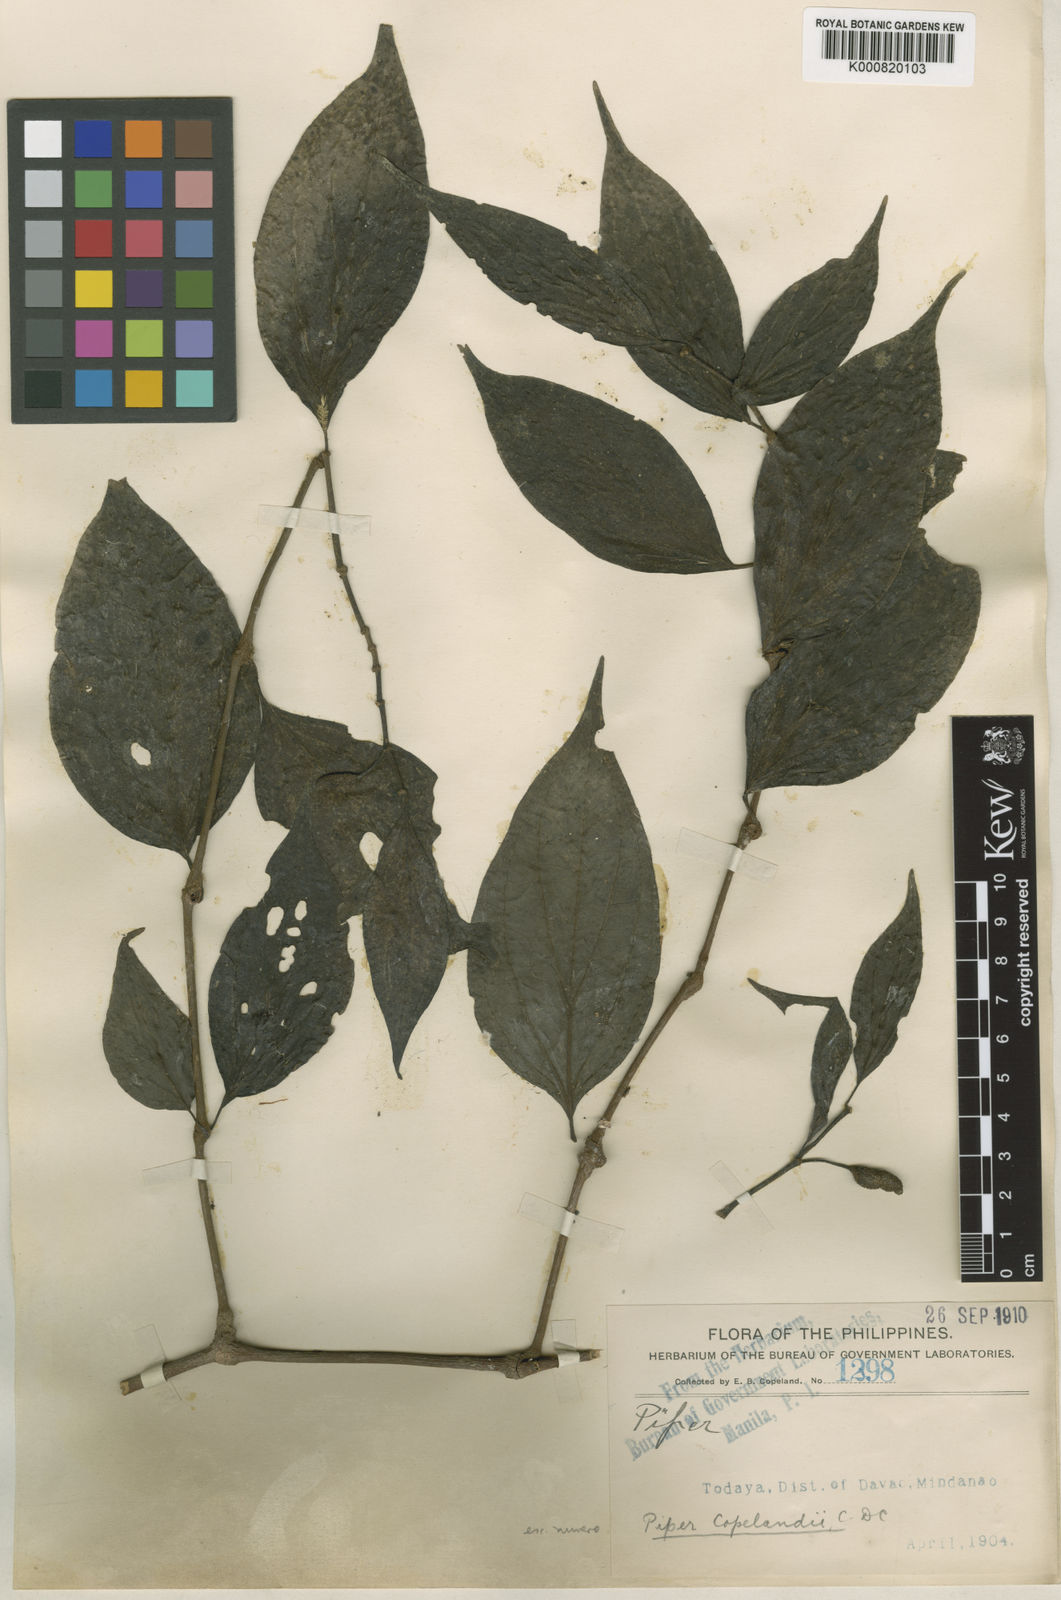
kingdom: Plantae
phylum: Tracheophyta
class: Magnoliopsida
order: Piperales
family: Piperaceae
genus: Piper
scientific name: Piper breviamentum
